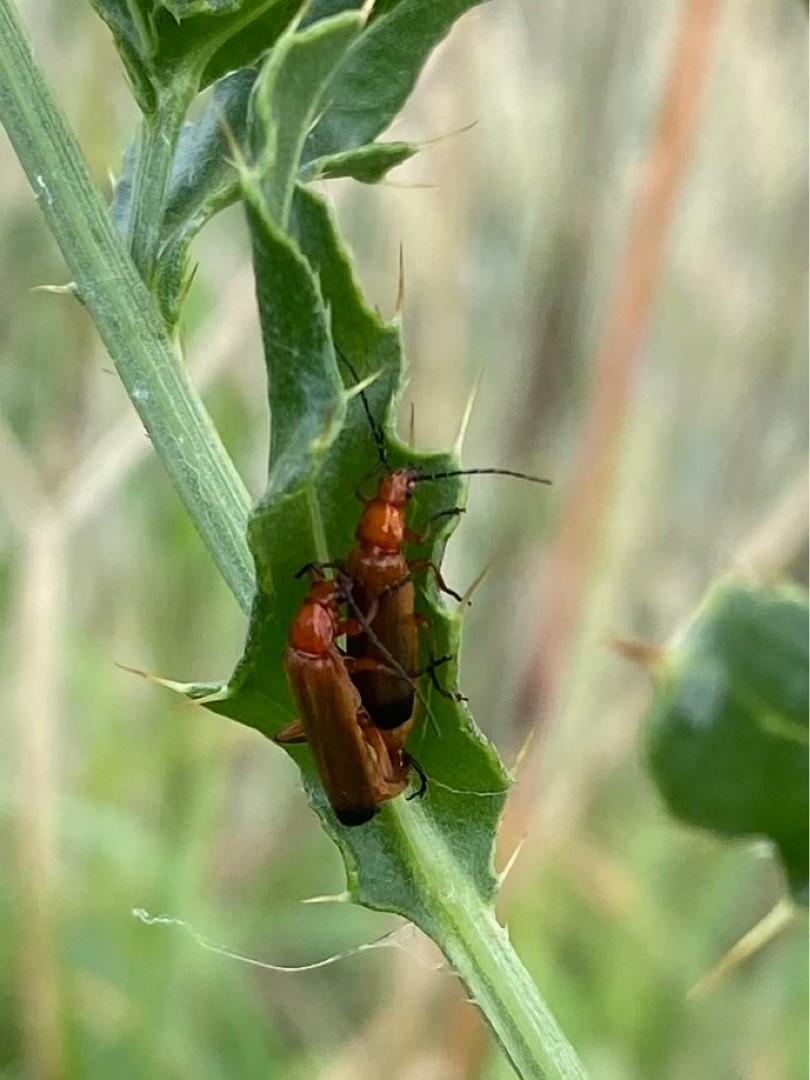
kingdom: Animalia
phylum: Arthropoda
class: Insecta
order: Coleoptera
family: Cantharidae
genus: Rhagonycha
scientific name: Rhagonycha fulva
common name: Præstebille
